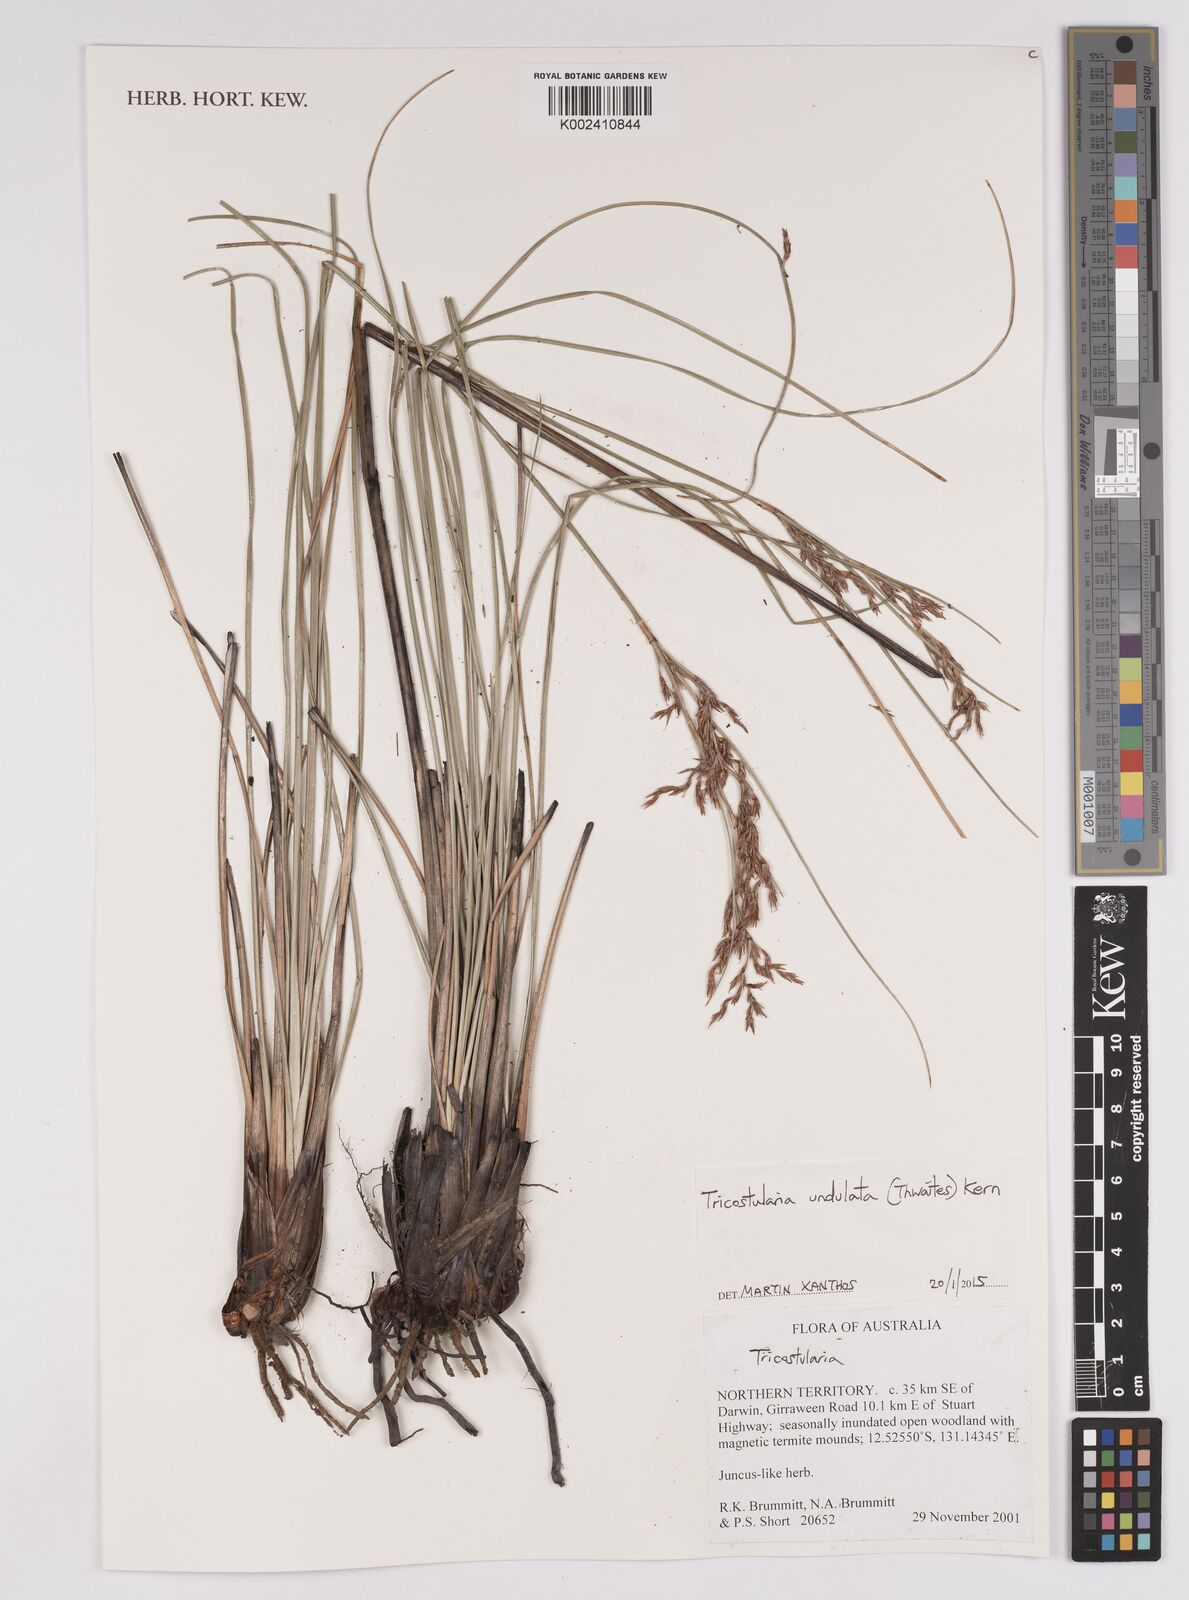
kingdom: Plantae
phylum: Tracheophyta
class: Liliopsida
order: Poales
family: Cyperaceae
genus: Anthelepis
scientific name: Anthelepis undulata
